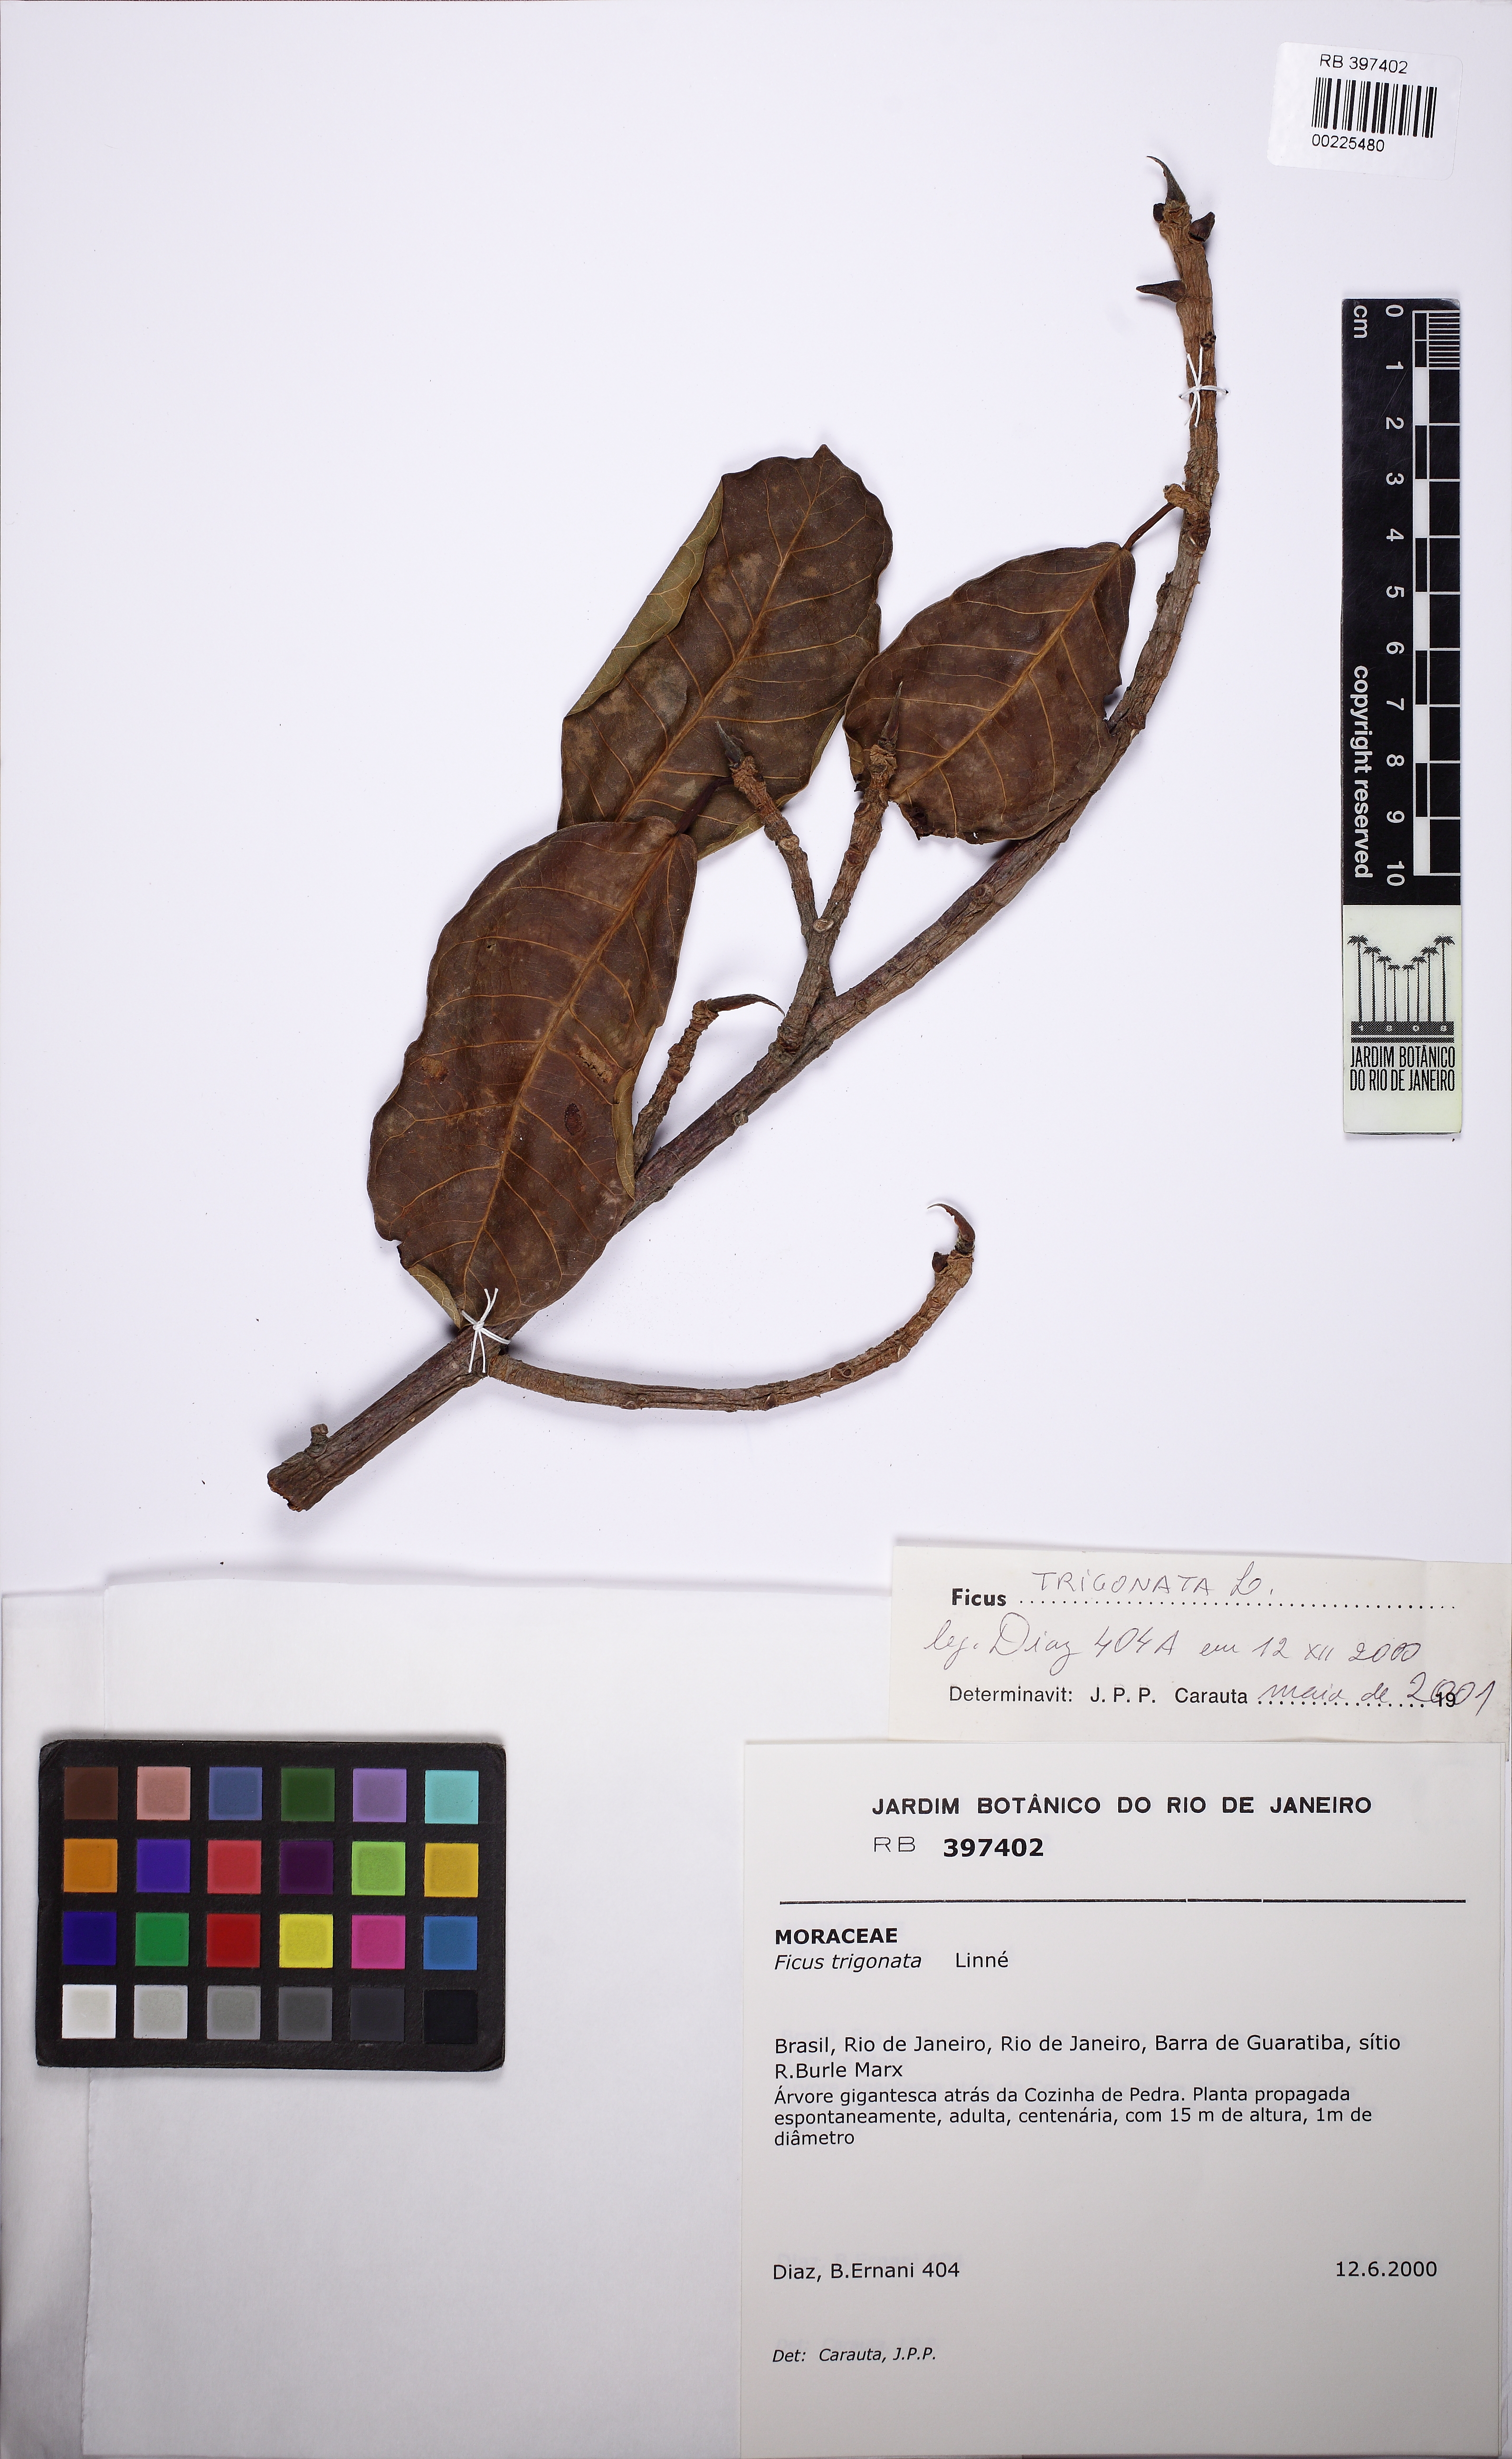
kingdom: Plantae
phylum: Tracheophyta
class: Magnoliopsida
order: Rosales
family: Moraceae
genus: Ficus
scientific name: Ficus crocata
